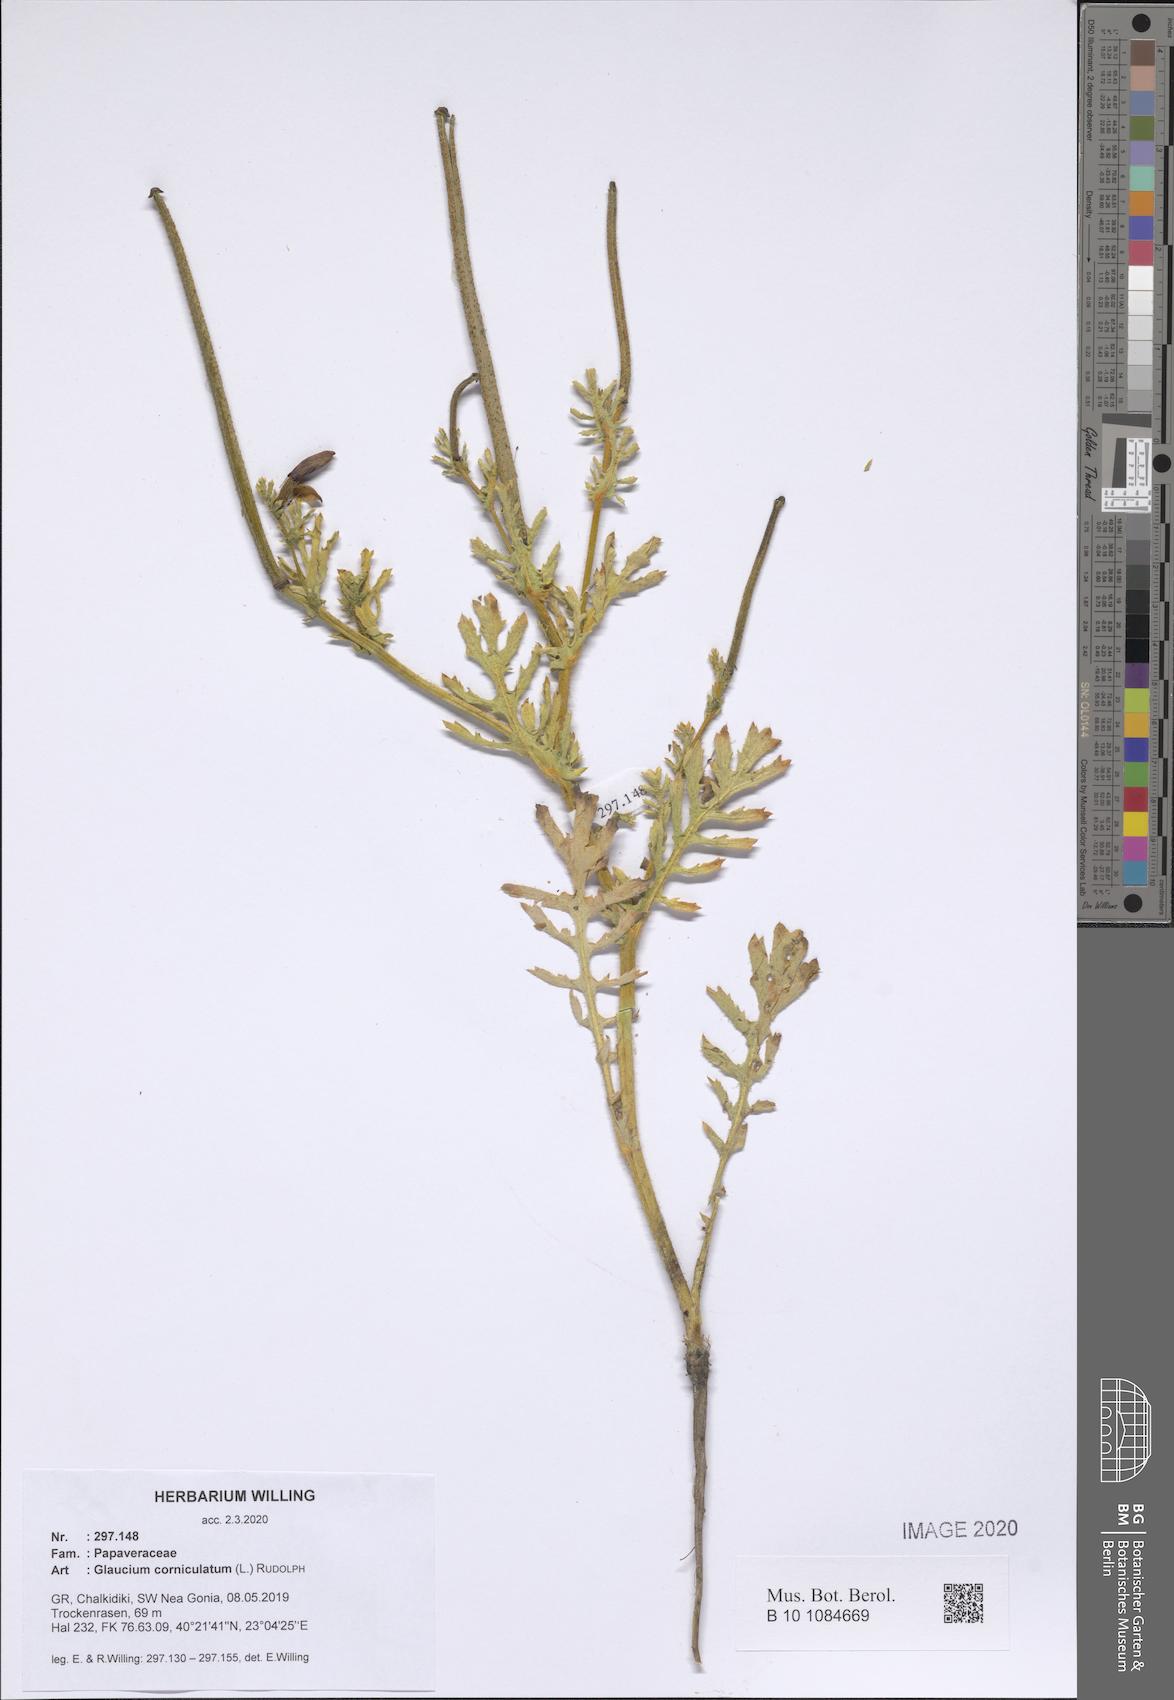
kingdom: Plantae
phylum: Tracheophyta
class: Magnoliopsida
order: Ranunculales
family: Papaveraceae
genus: Glaucium
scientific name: Glaucium corniculatum
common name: Red horned-poppy
